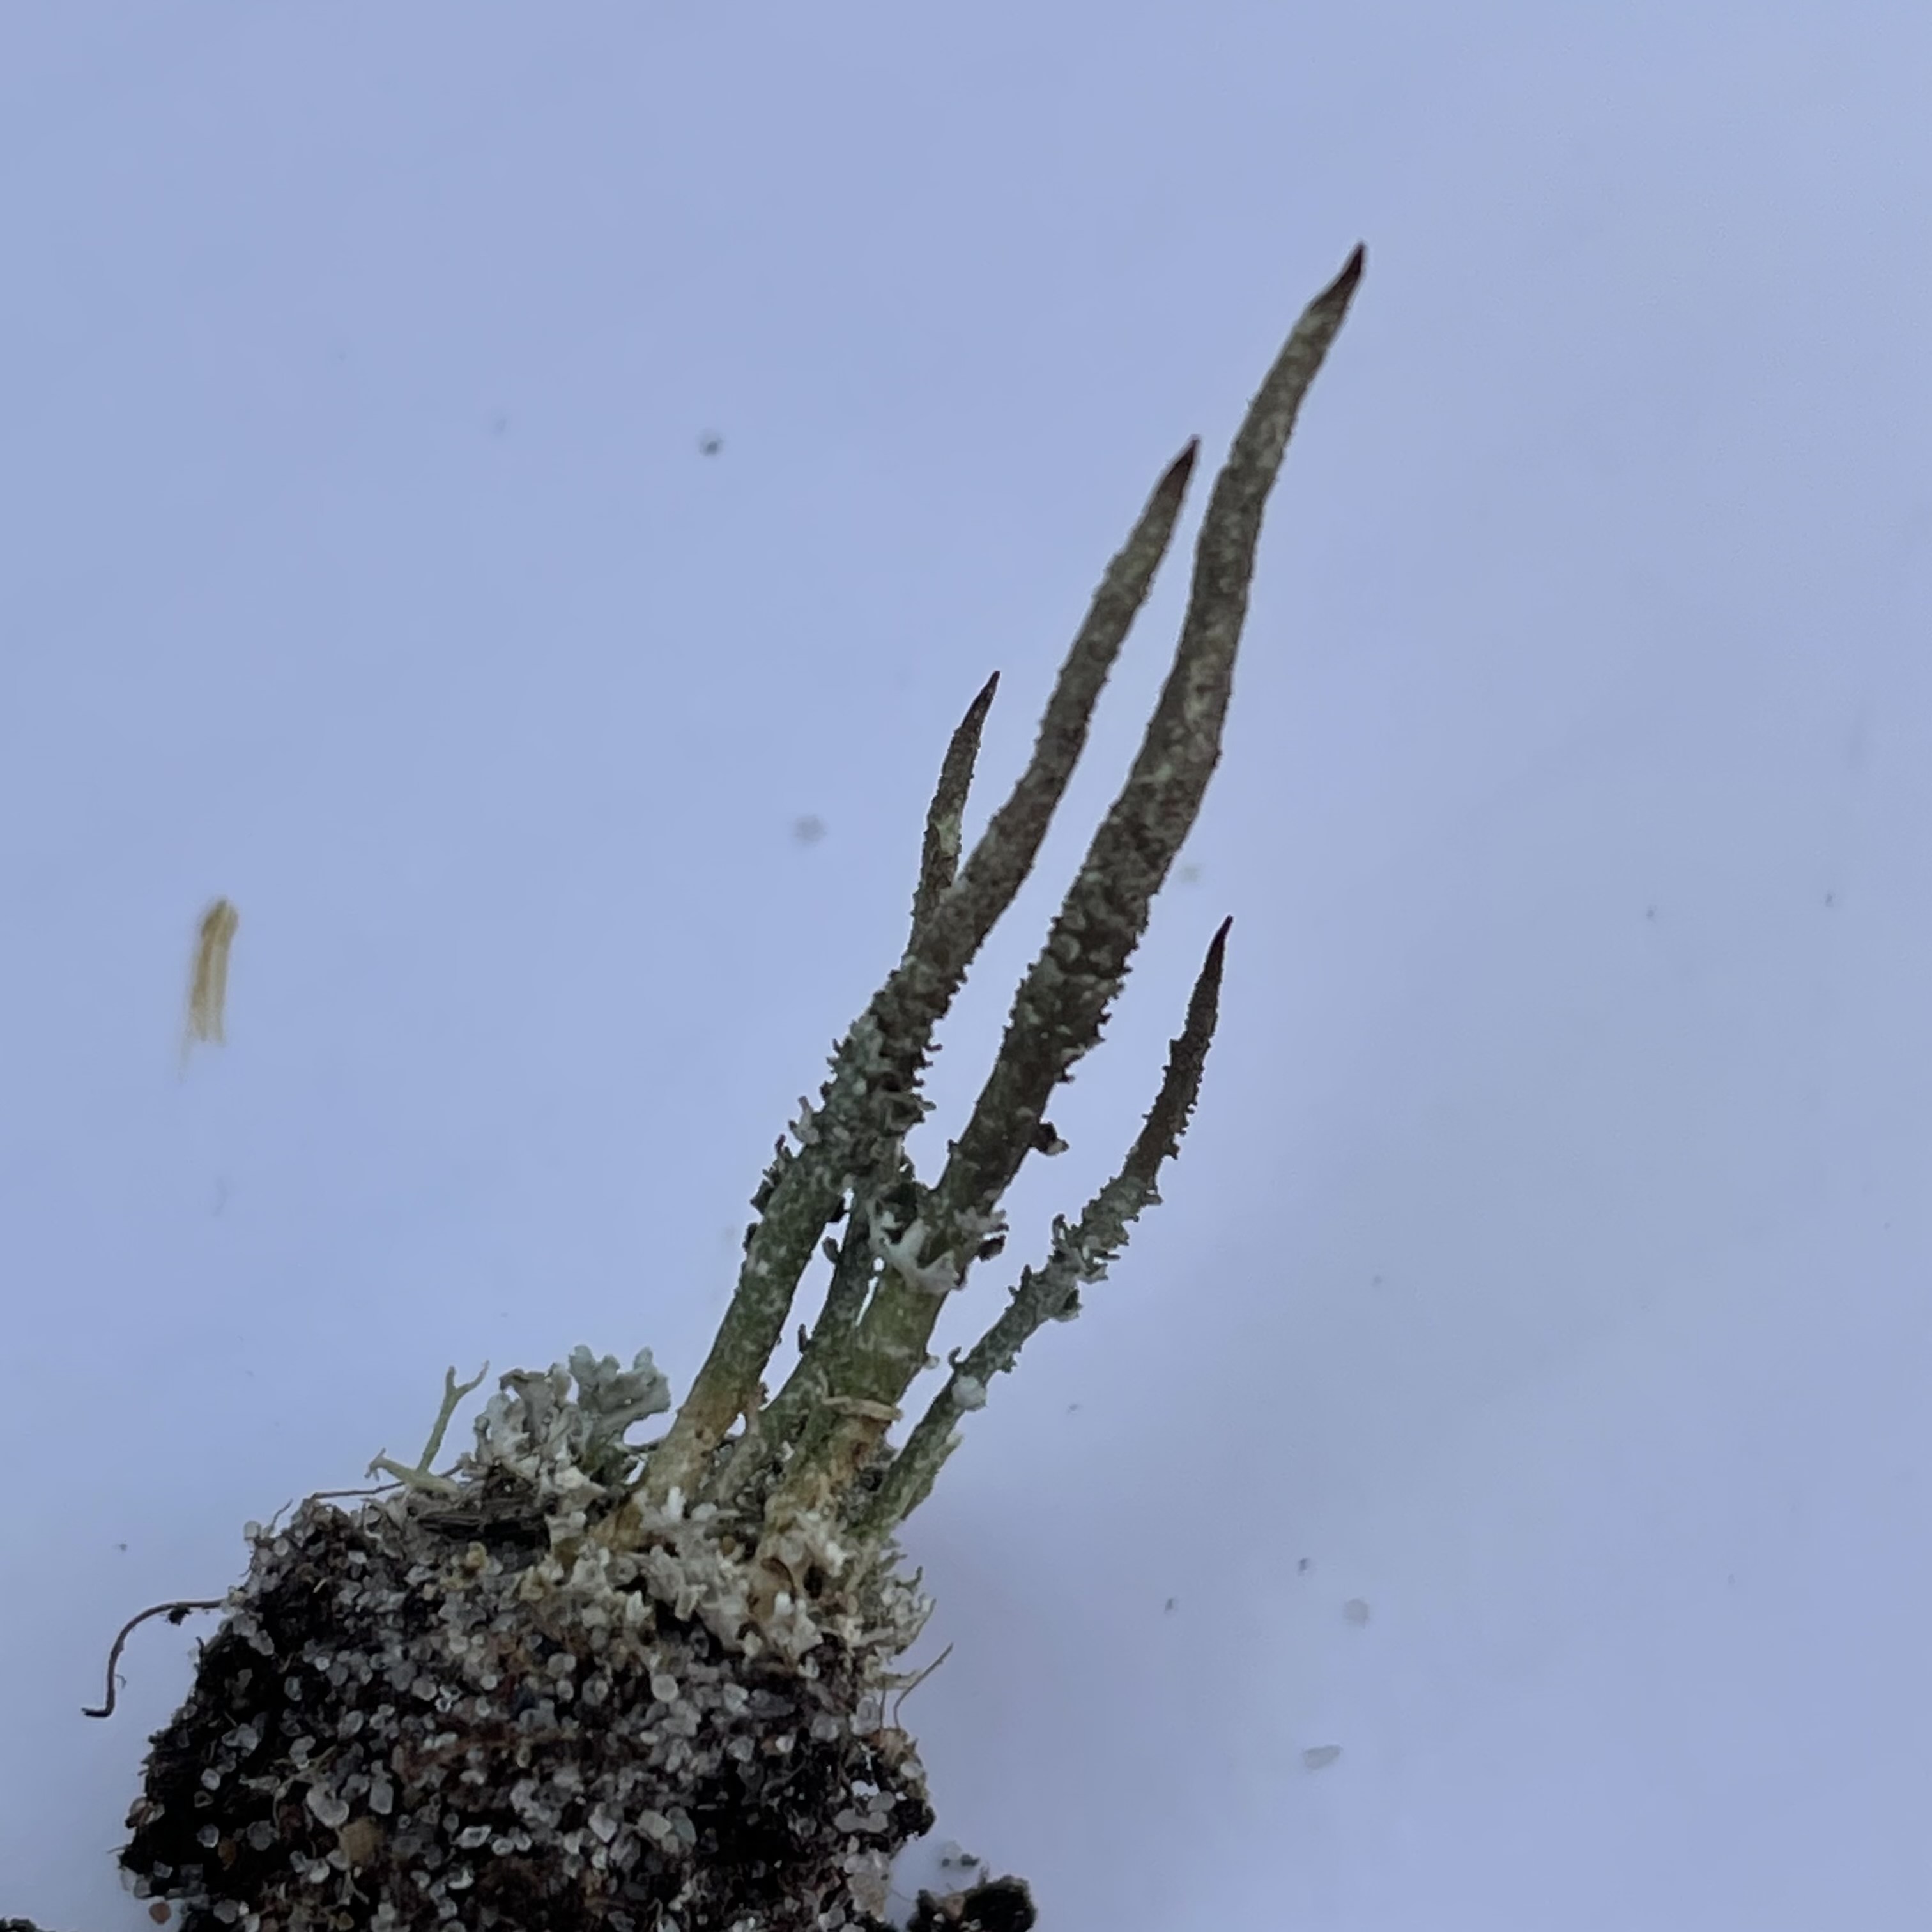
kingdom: Fungi
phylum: Ascomycota
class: Lecanoromycetes
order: Lecanorales
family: Cladoniaceae
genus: Cladonia
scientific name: Cladonia glauca
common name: grågrøn bægerlav
